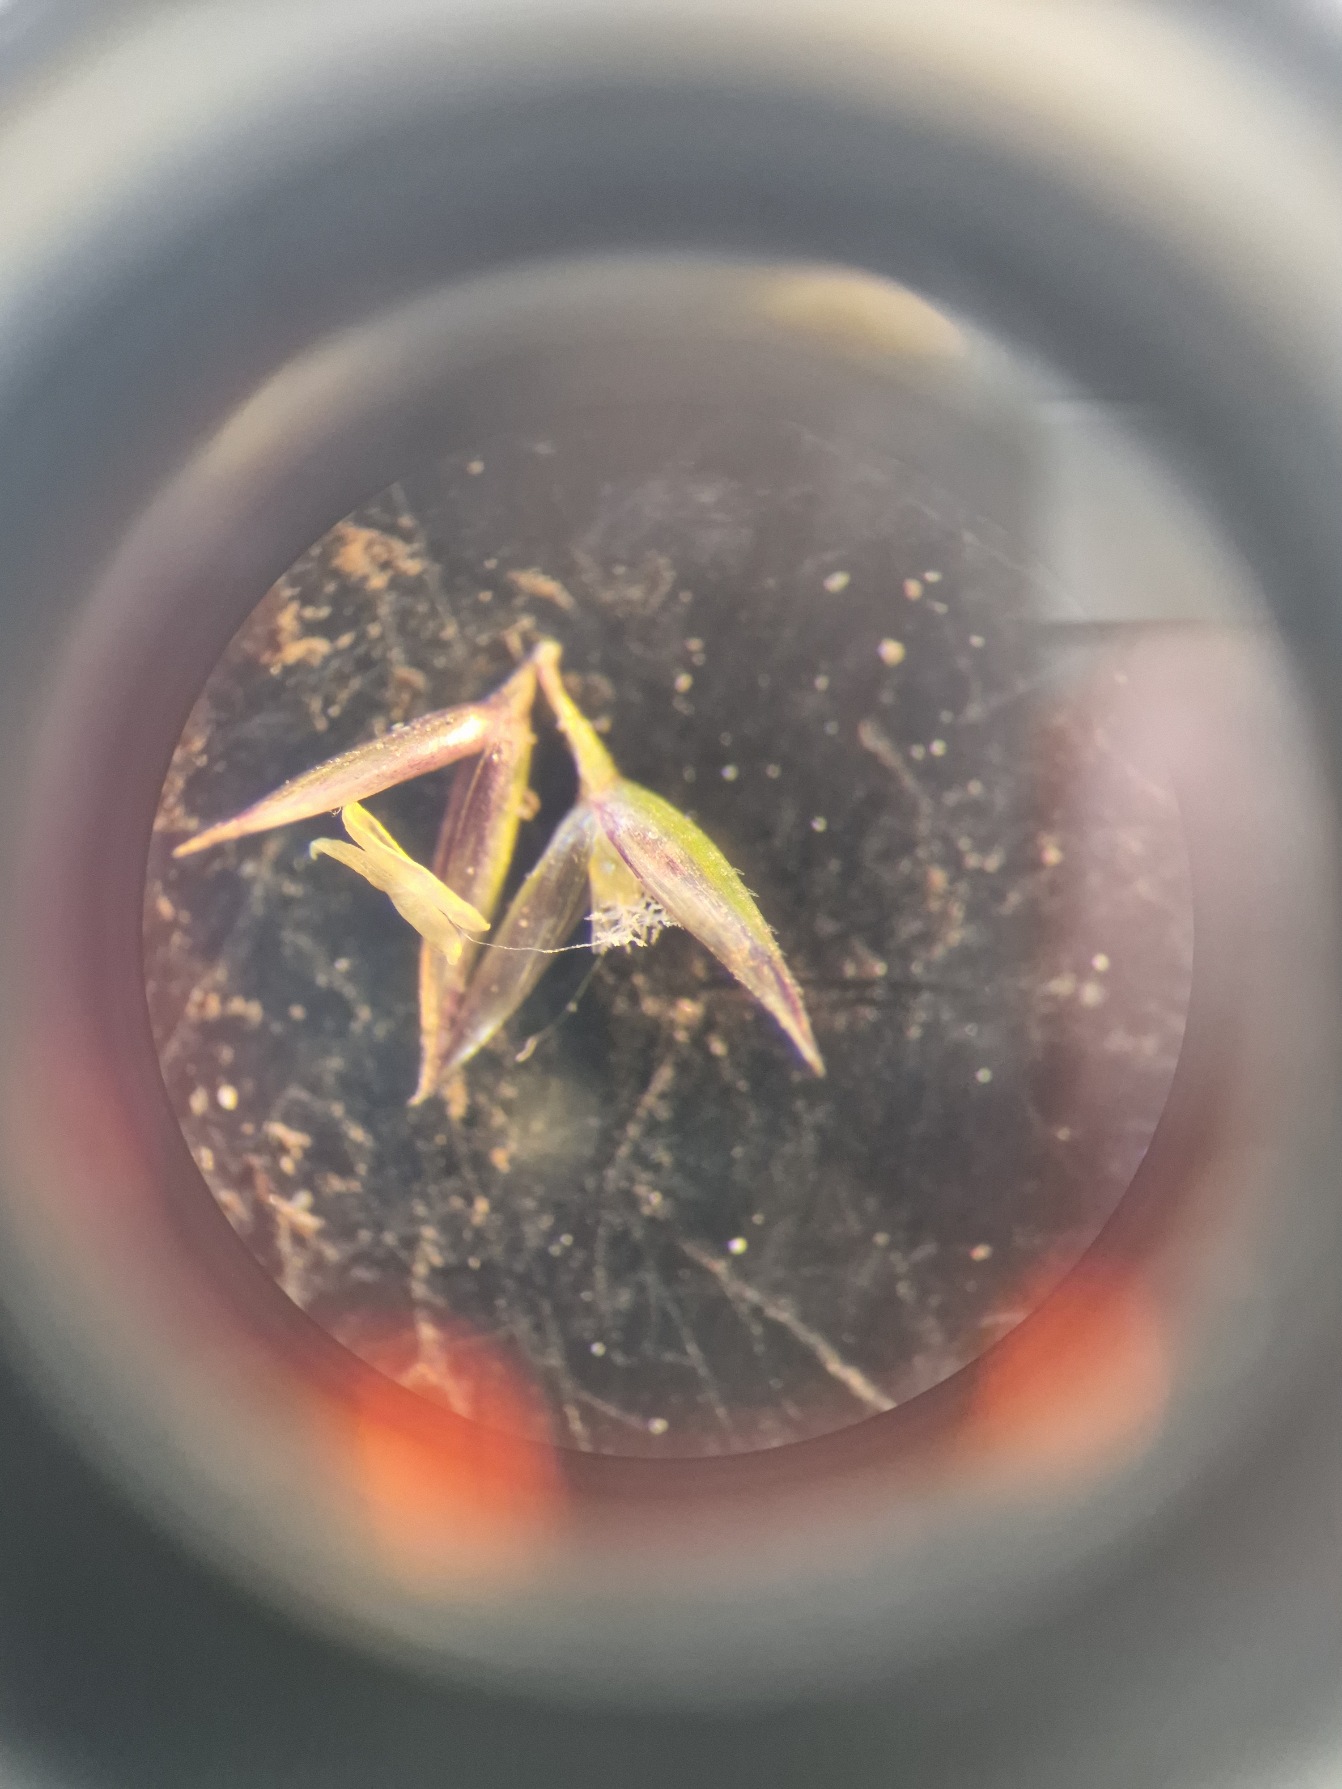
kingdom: Plantae
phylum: Tracheophyta
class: Liliopsida
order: Poales
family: Poaceae
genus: Agrostis
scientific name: Agrostis stolonifera
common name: Kryb-hvene
